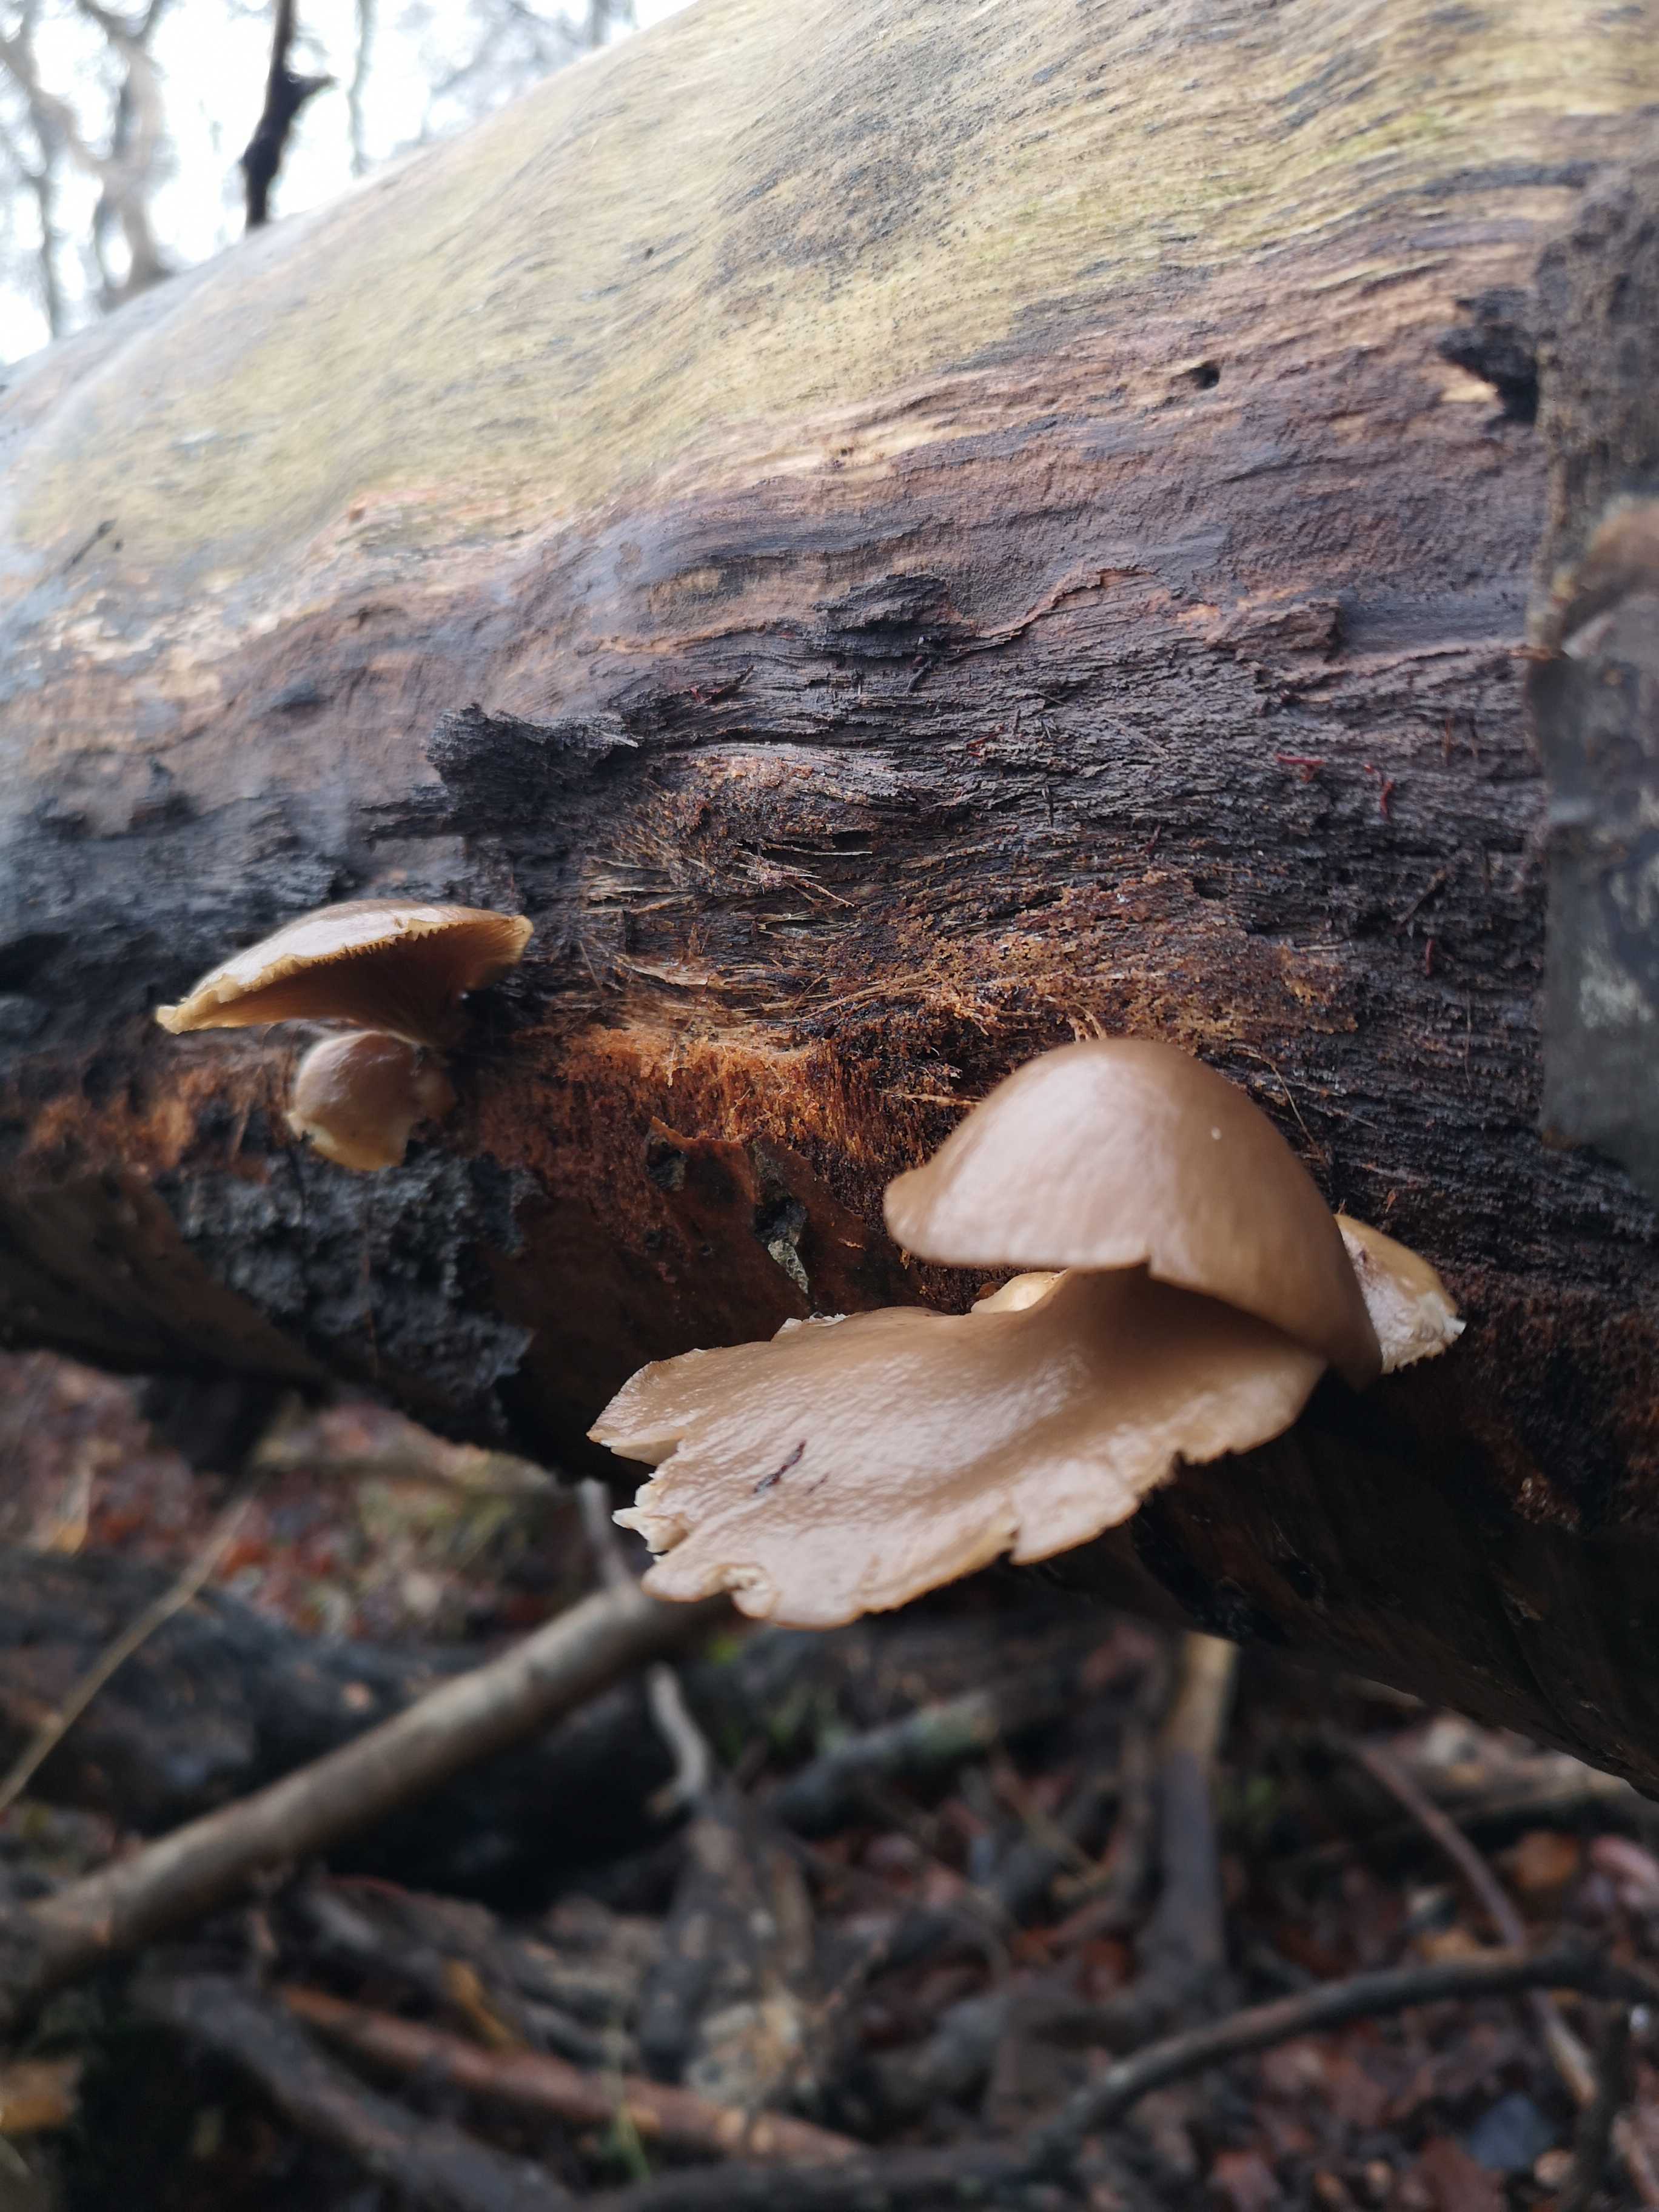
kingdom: Fungi
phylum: Basidiomycota
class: Agaricomycetes
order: Agaricales
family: Pleurotaceae
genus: Pleurotus
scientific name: Pleurotus ostreatus
